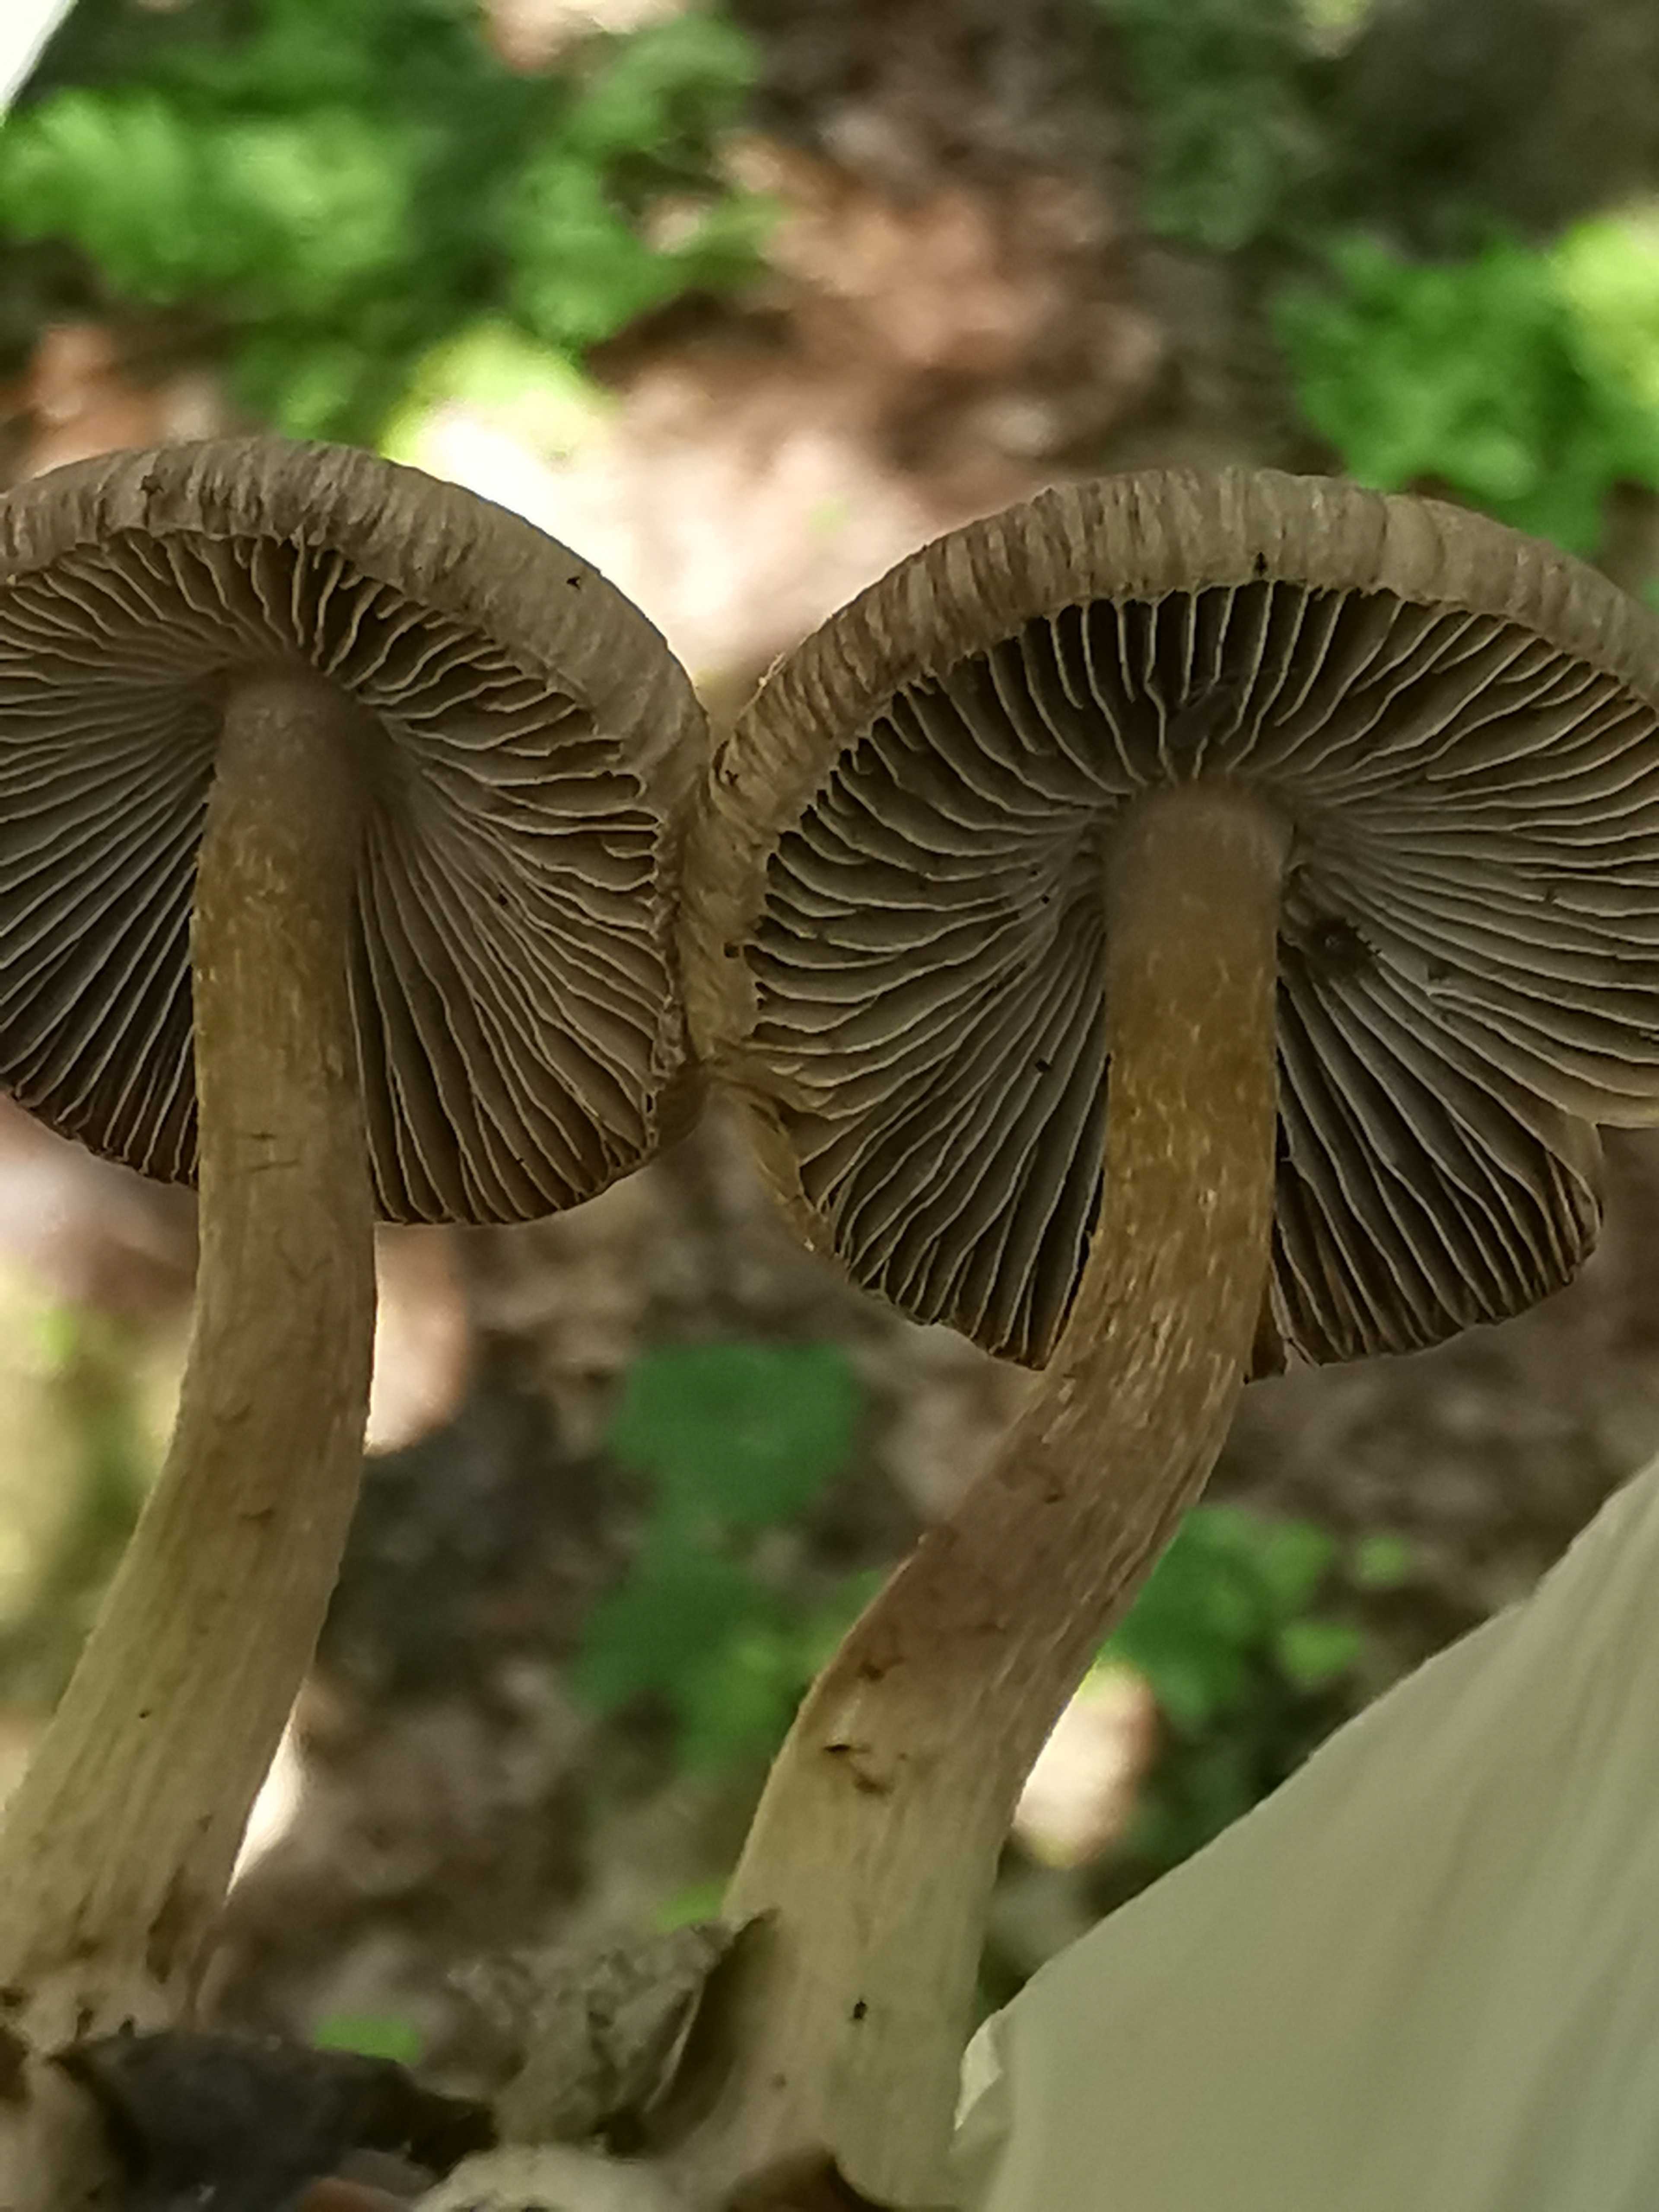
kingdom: Fungi
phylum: Basidiomycota
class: Agaricomycetes
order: Agaricales
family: Inocybaceae
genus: Inocybe
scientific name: Inocybe napipes
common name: roeknoldet trævlhat
